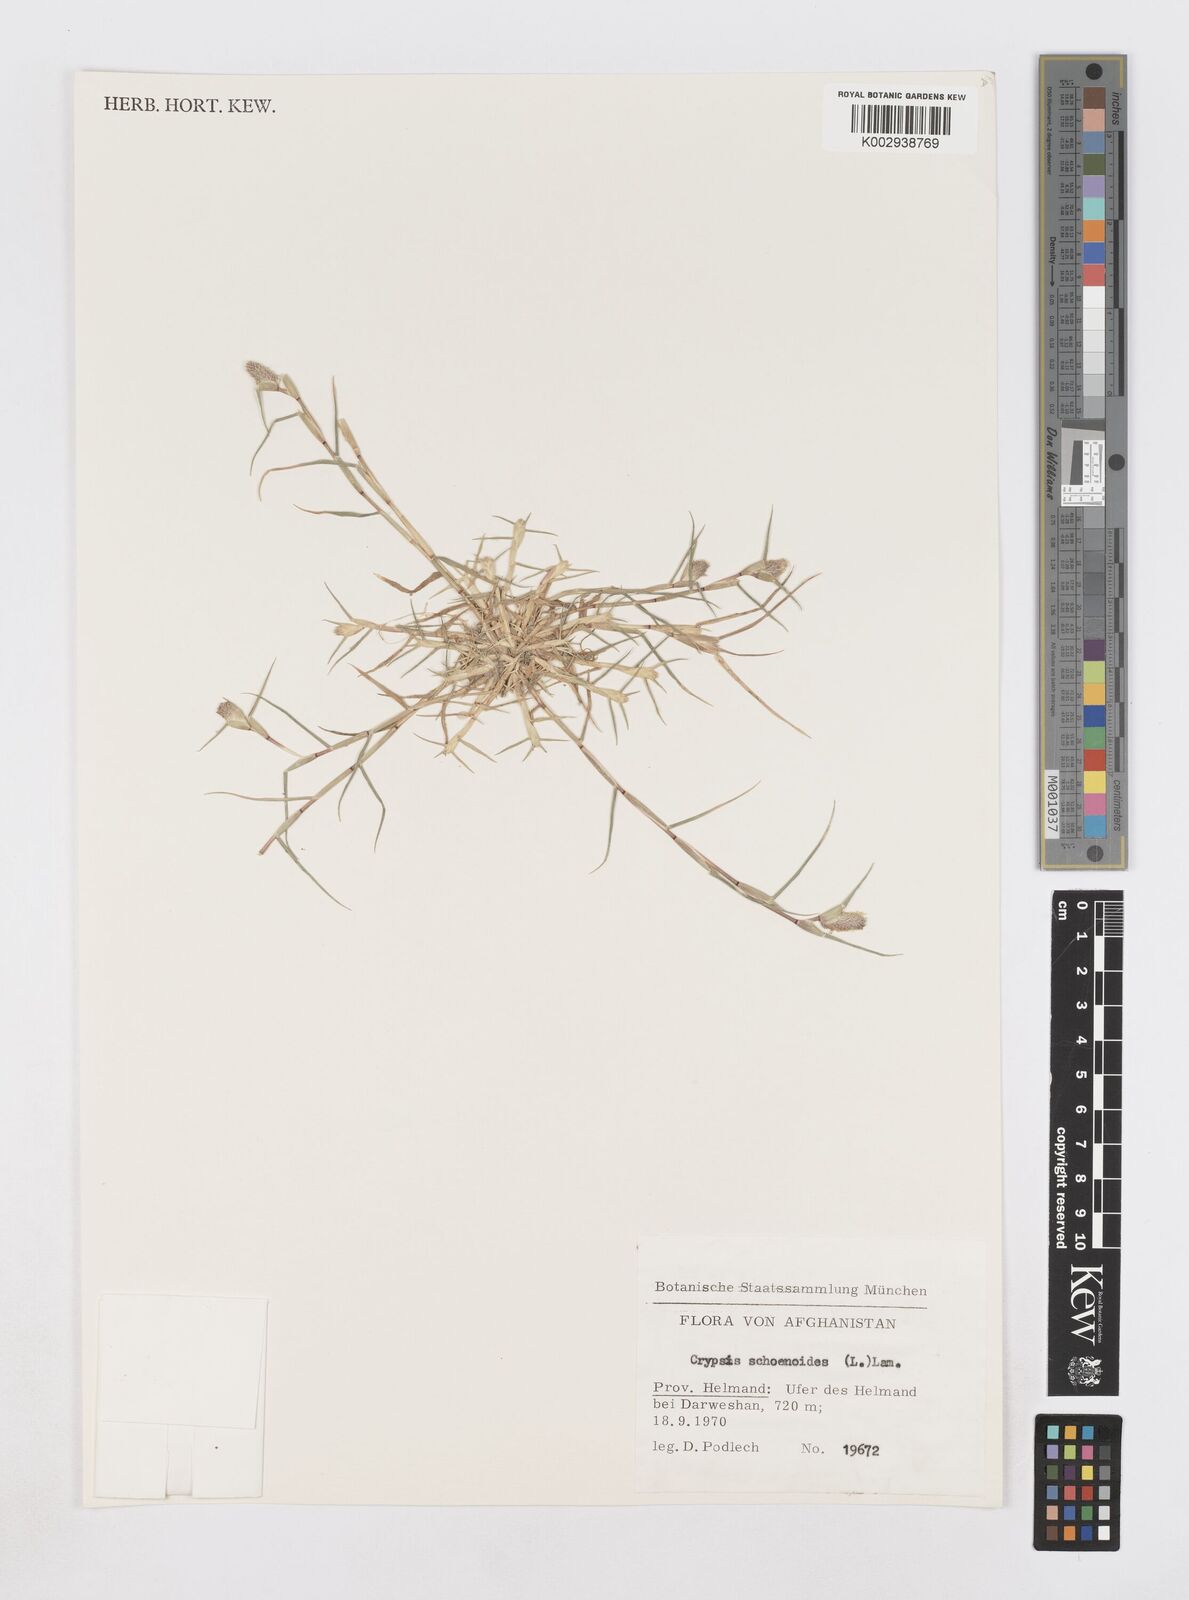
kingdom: Plantae
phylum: Tracheophyta
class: Liliopsida
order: Poales
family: Poaceae
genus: Sporobolus
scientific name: Sporobolus schoenoides
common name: Rush-like timothy
